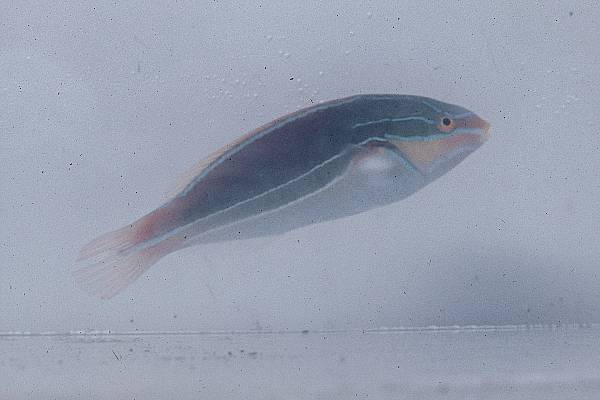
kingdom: Animalia
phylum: Chordata
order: Perciformes
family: Labridae
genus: Stethojulis
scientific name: Stethojulis albovittata
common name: Bluelined wrasse
